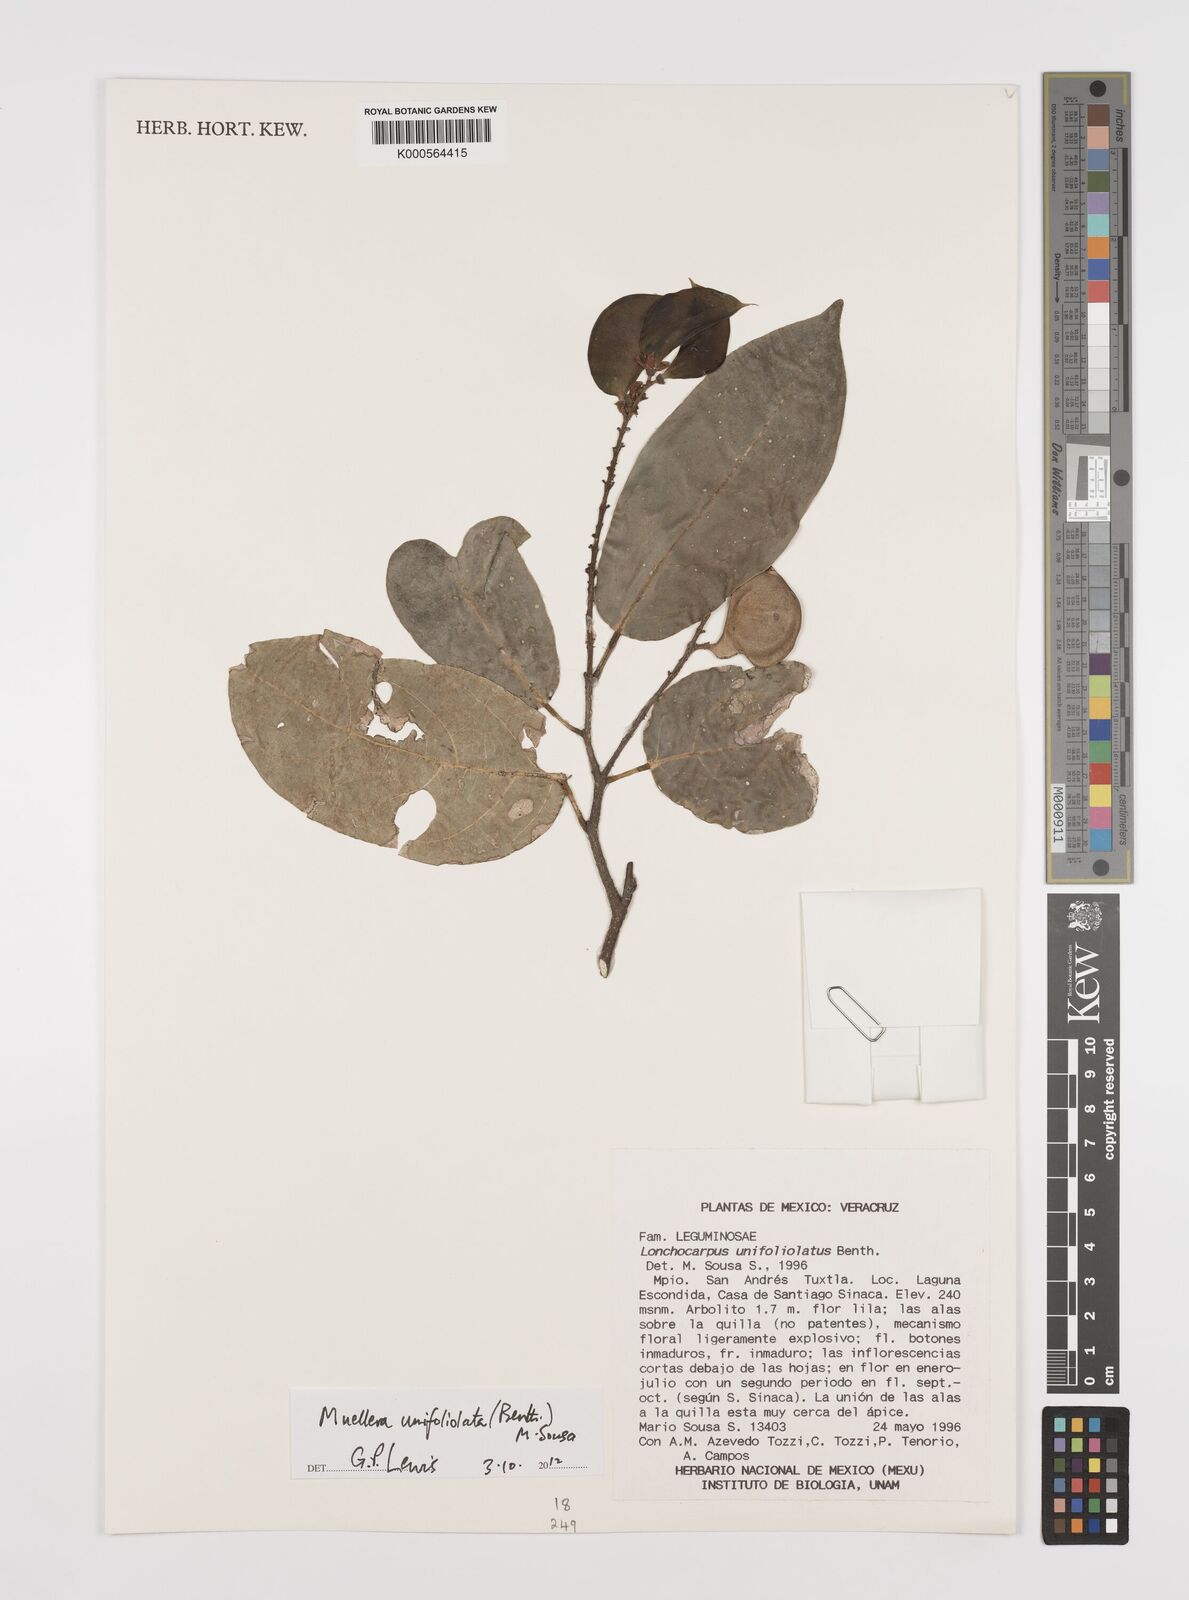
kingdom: Plantae
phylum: Tracheophyta
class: Magnoliopsida
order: Fabales
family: Fabaceae
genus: Muellera
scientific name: Muellera unifoliolata
